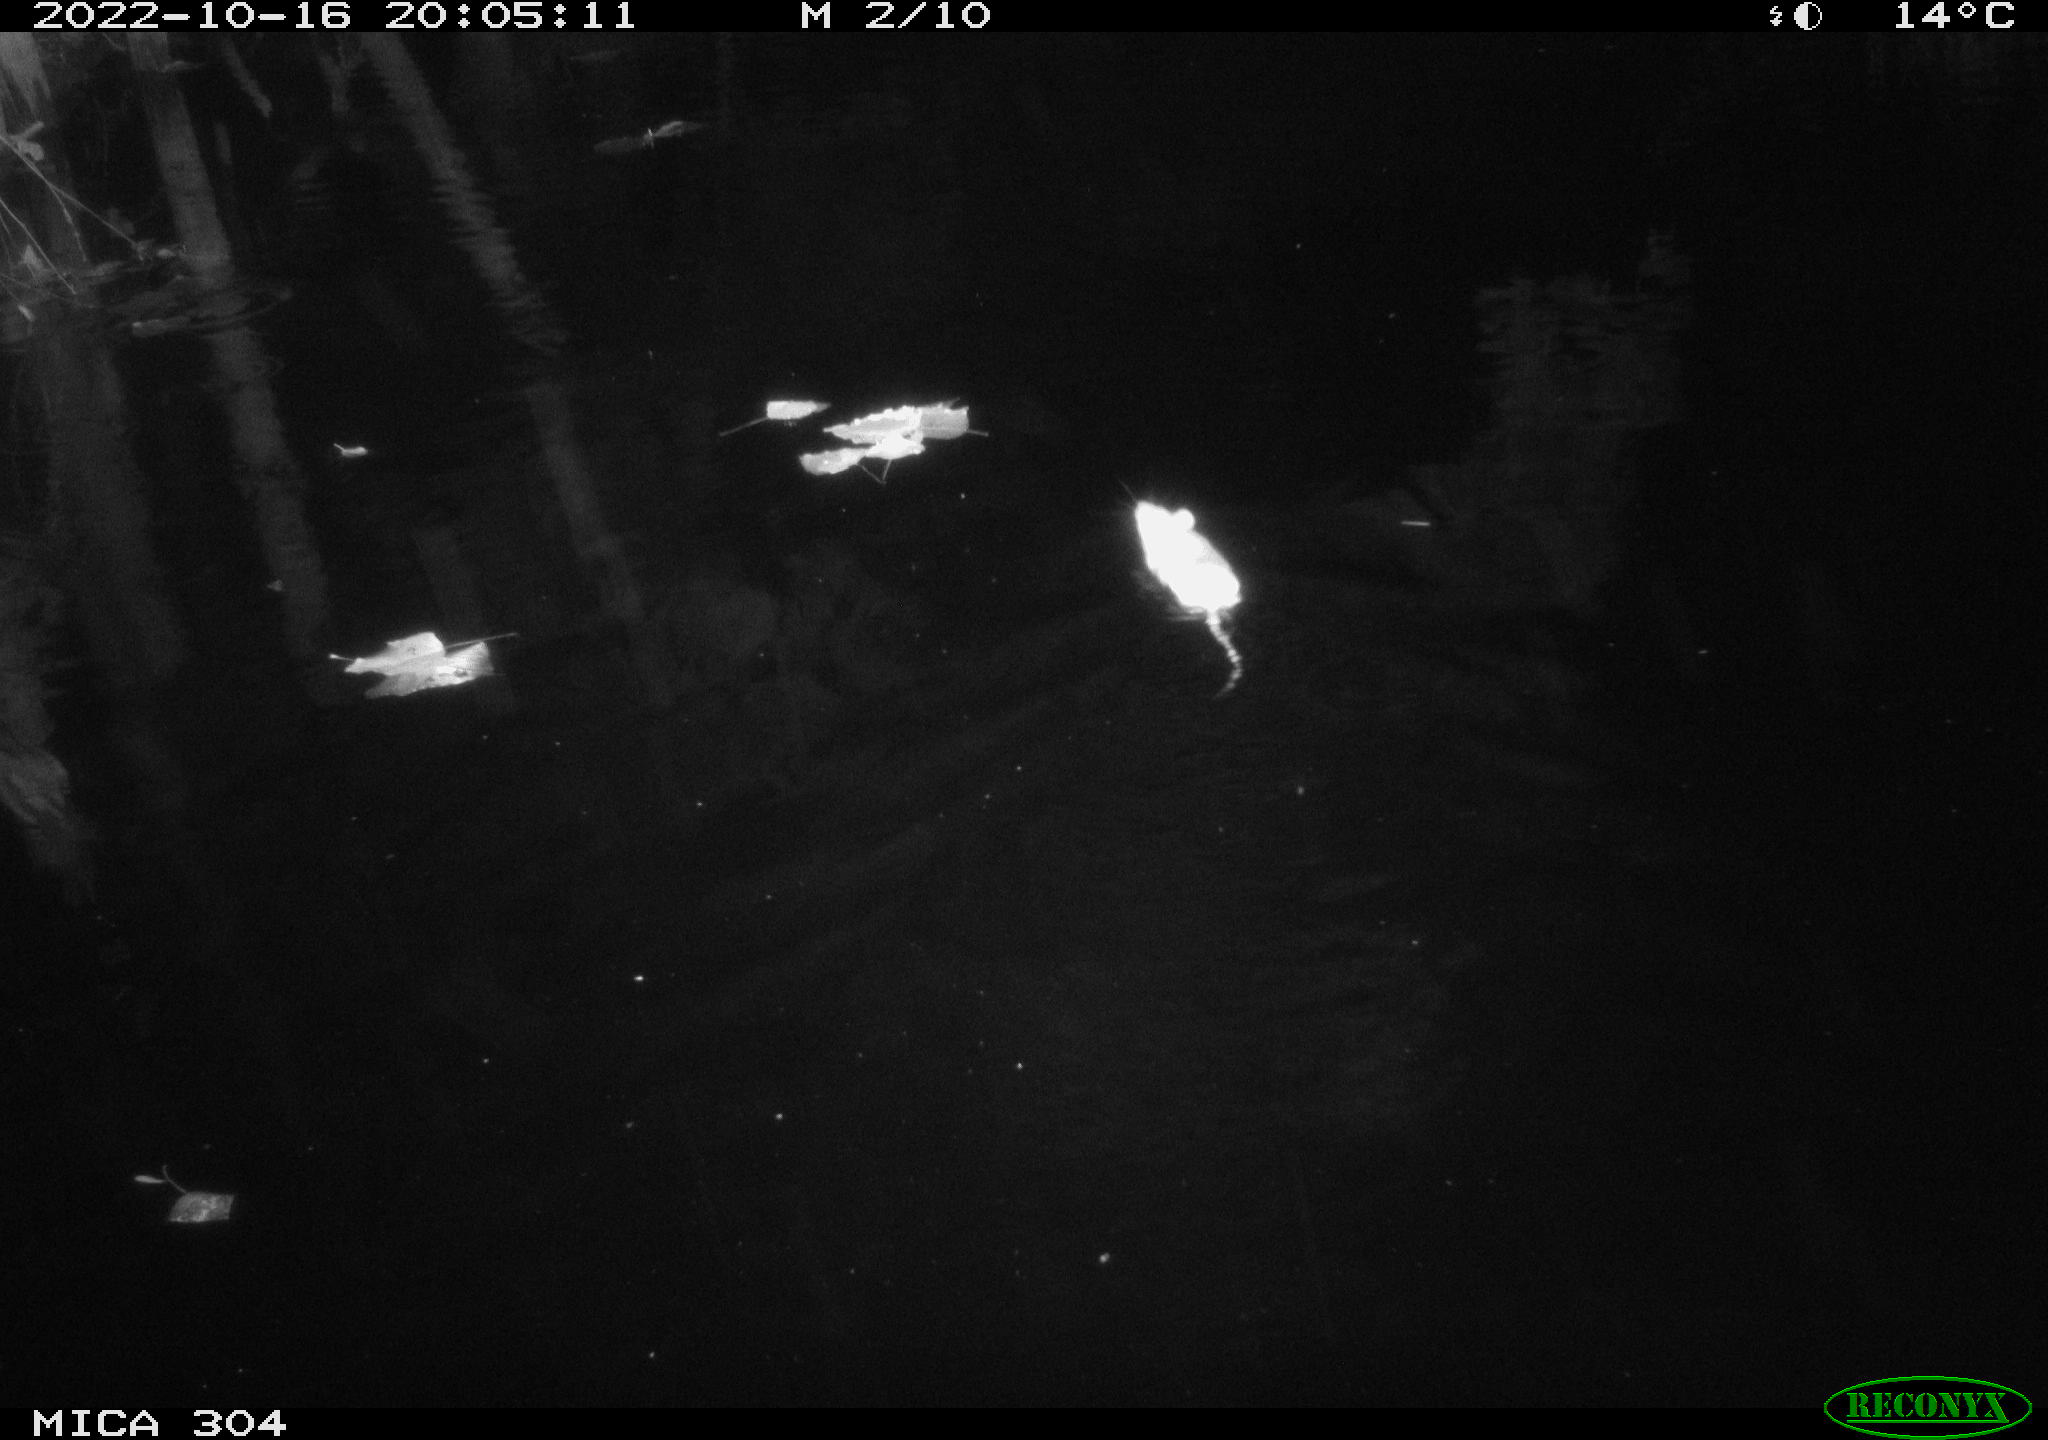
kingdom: Animalia
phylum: Chordata
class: Mammalia
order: Rodentia
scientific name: Rodentia
